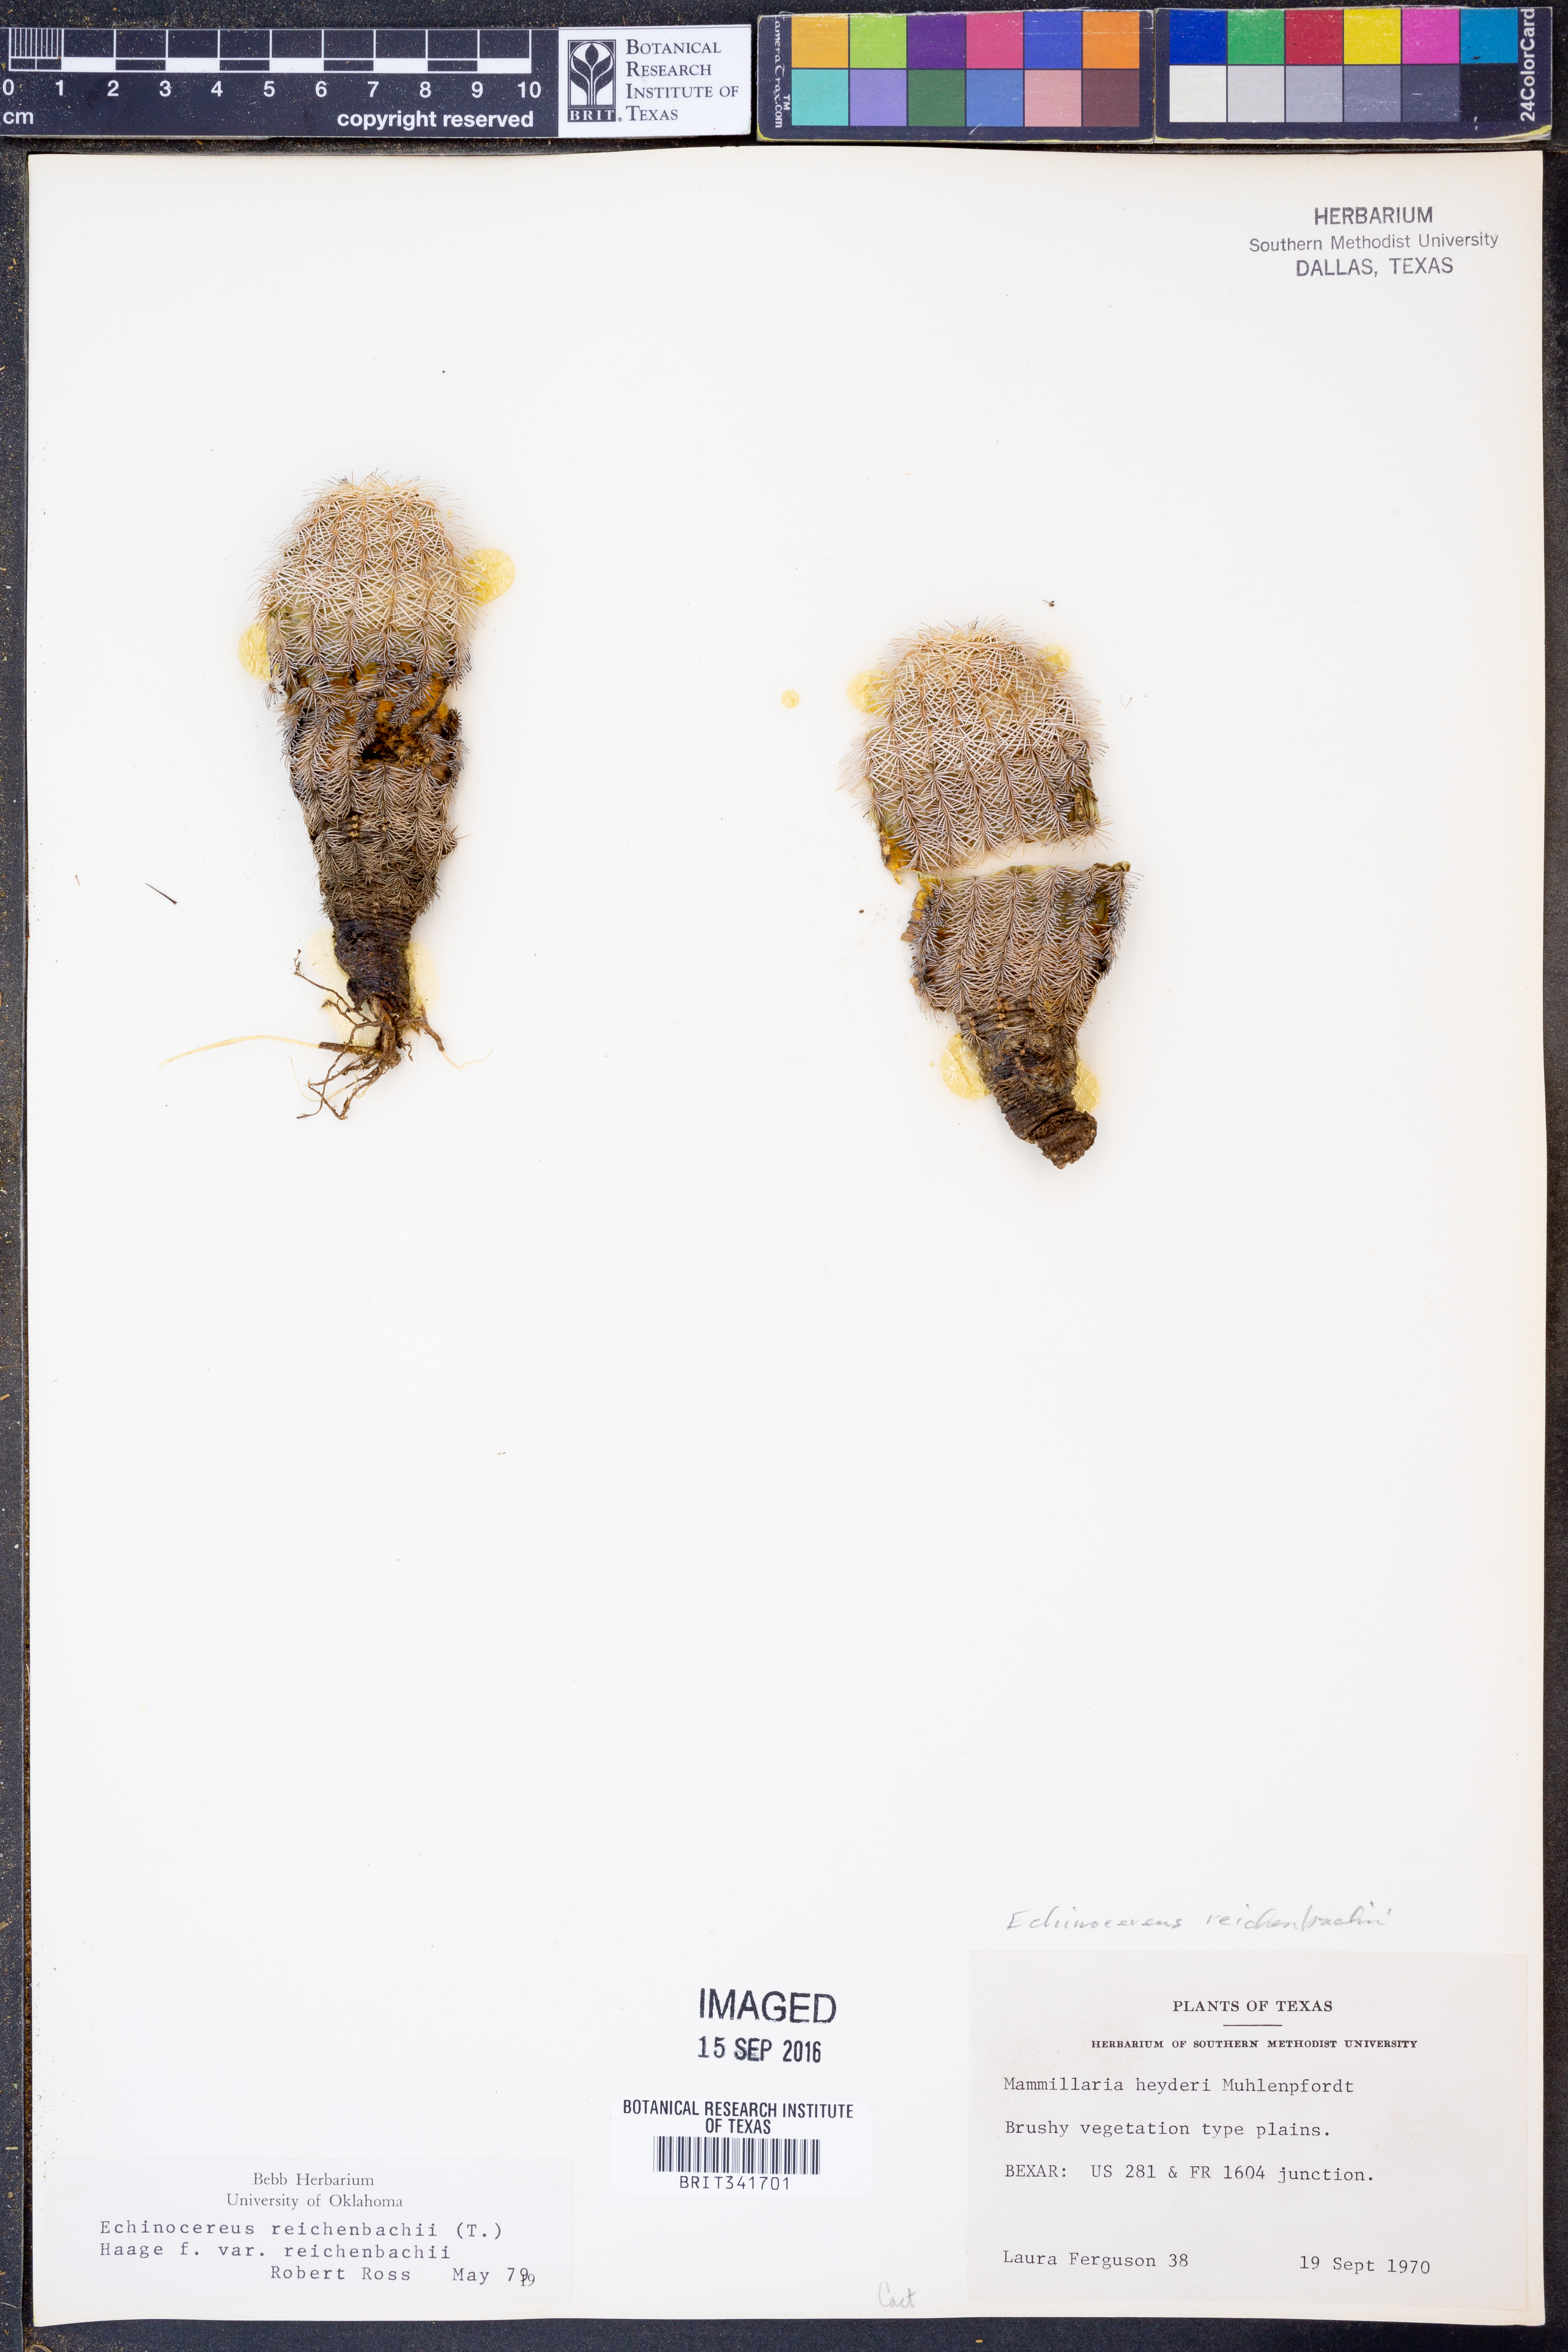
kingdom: Plantae
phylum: Tracheophyta
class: Magnoliopsida
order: Caryophyllales
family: Cactaceae
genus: Echinocereus
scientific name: Echinocereus reichenbachii
